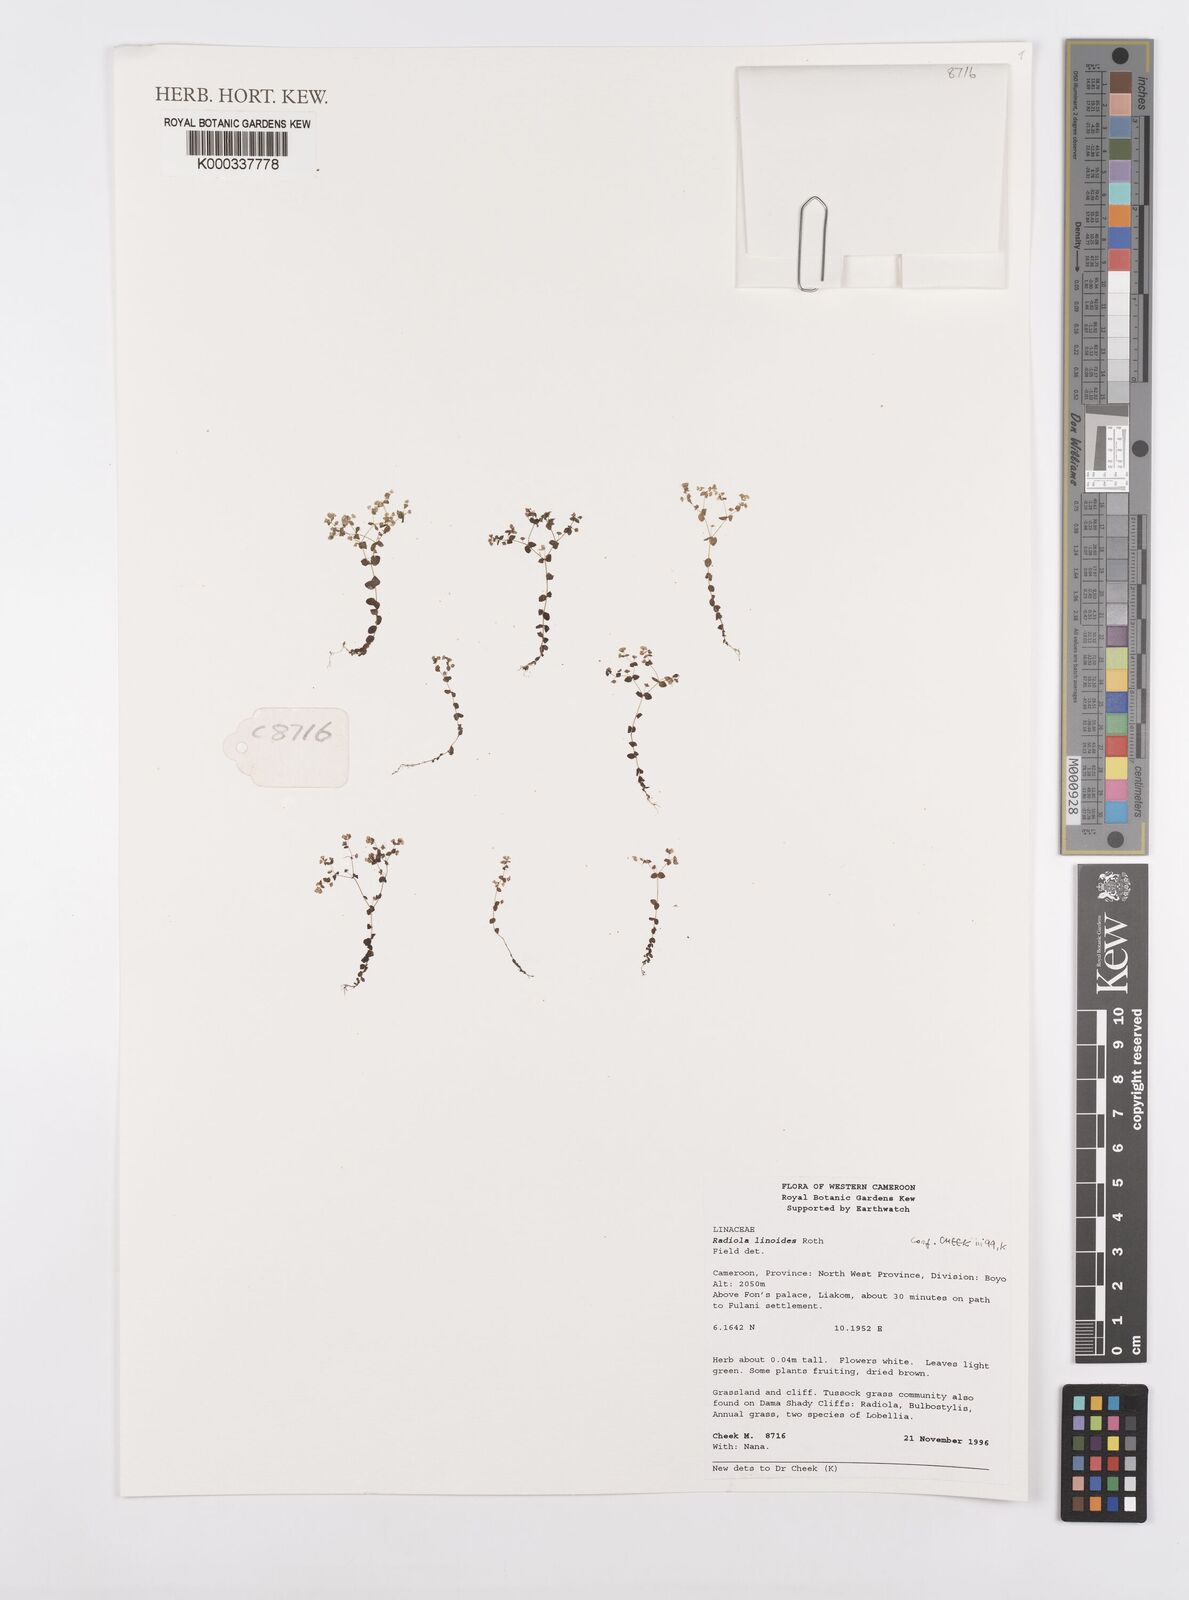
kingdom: Plantae
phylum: Tracheophyta
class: Magnoliopsida
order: Malpighiales
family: Linaceae
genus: Radiola
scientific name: Radiola linoides
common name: Allseed
